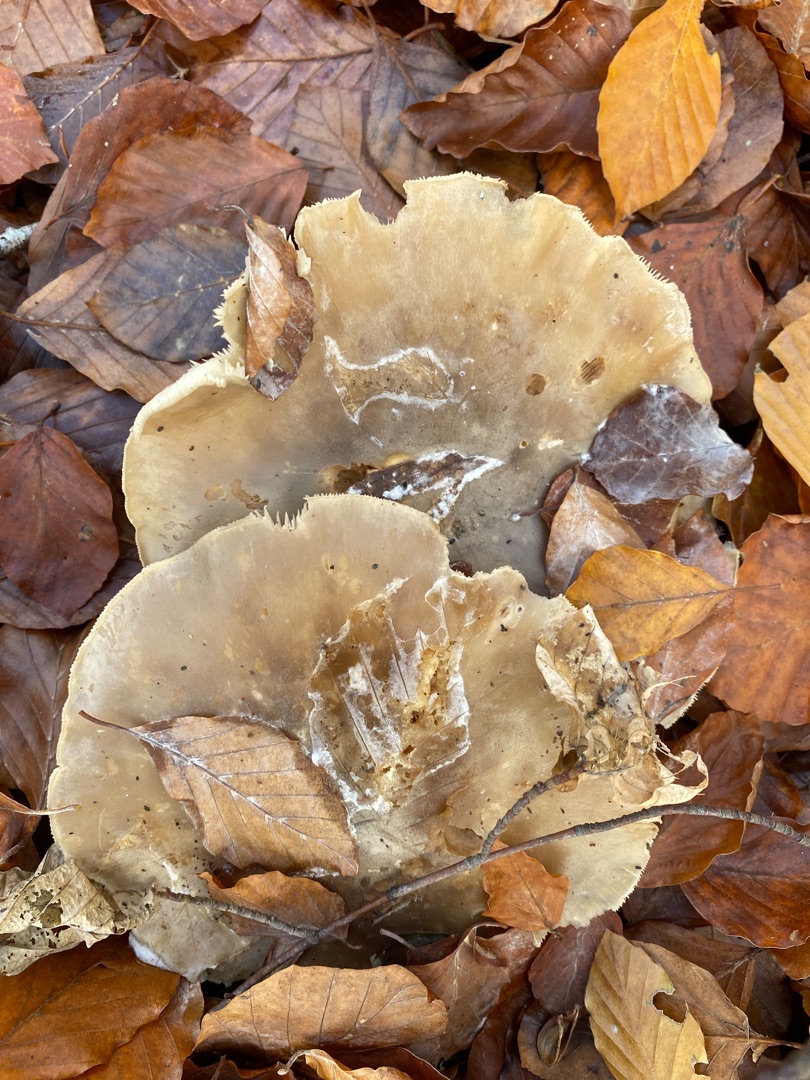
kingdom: Fungi
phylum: Basidiomycota
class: Agaricomycetes
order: Agaricales
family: Tricholomataceae
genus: Clitocybe
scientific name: Clitocybe nebularis
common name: Tåge-tragthat
